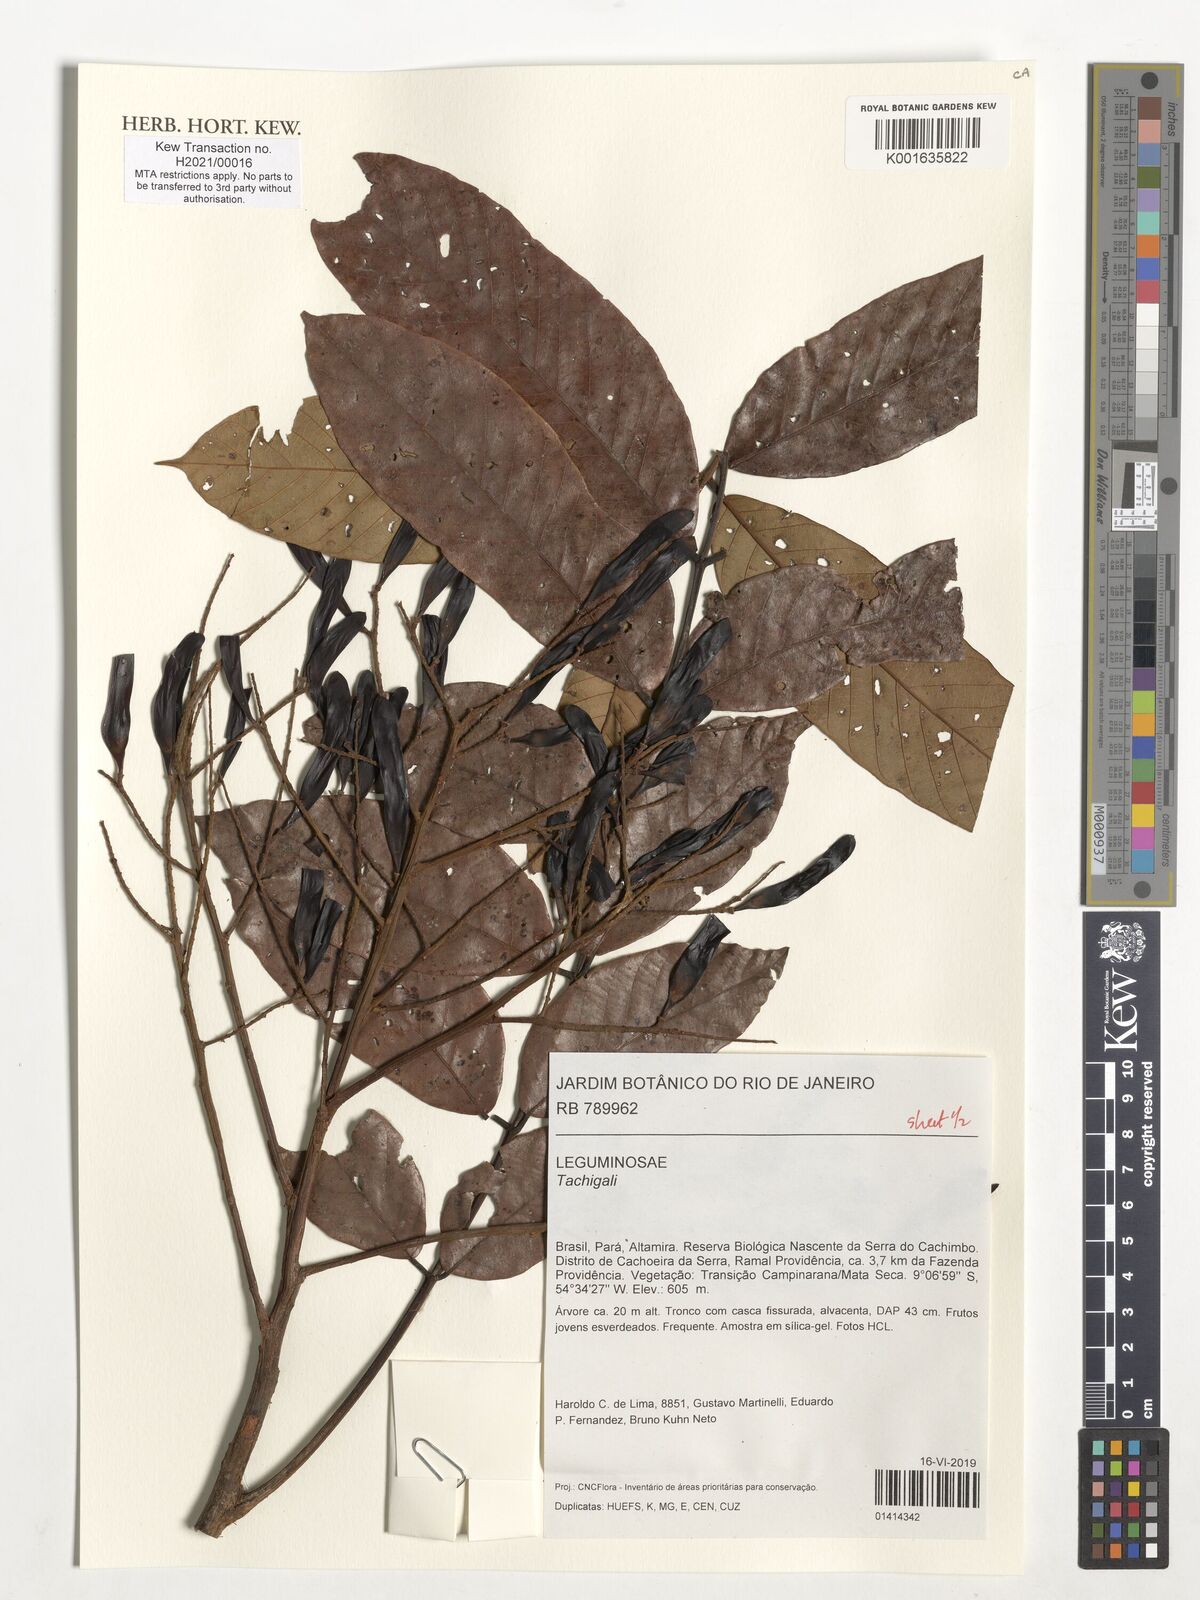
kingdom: Plantae
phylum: Tracheophyta
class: Magnoliopsida
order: Fabales
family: Fabaceae
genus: Tachigali
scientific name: Tachigali
